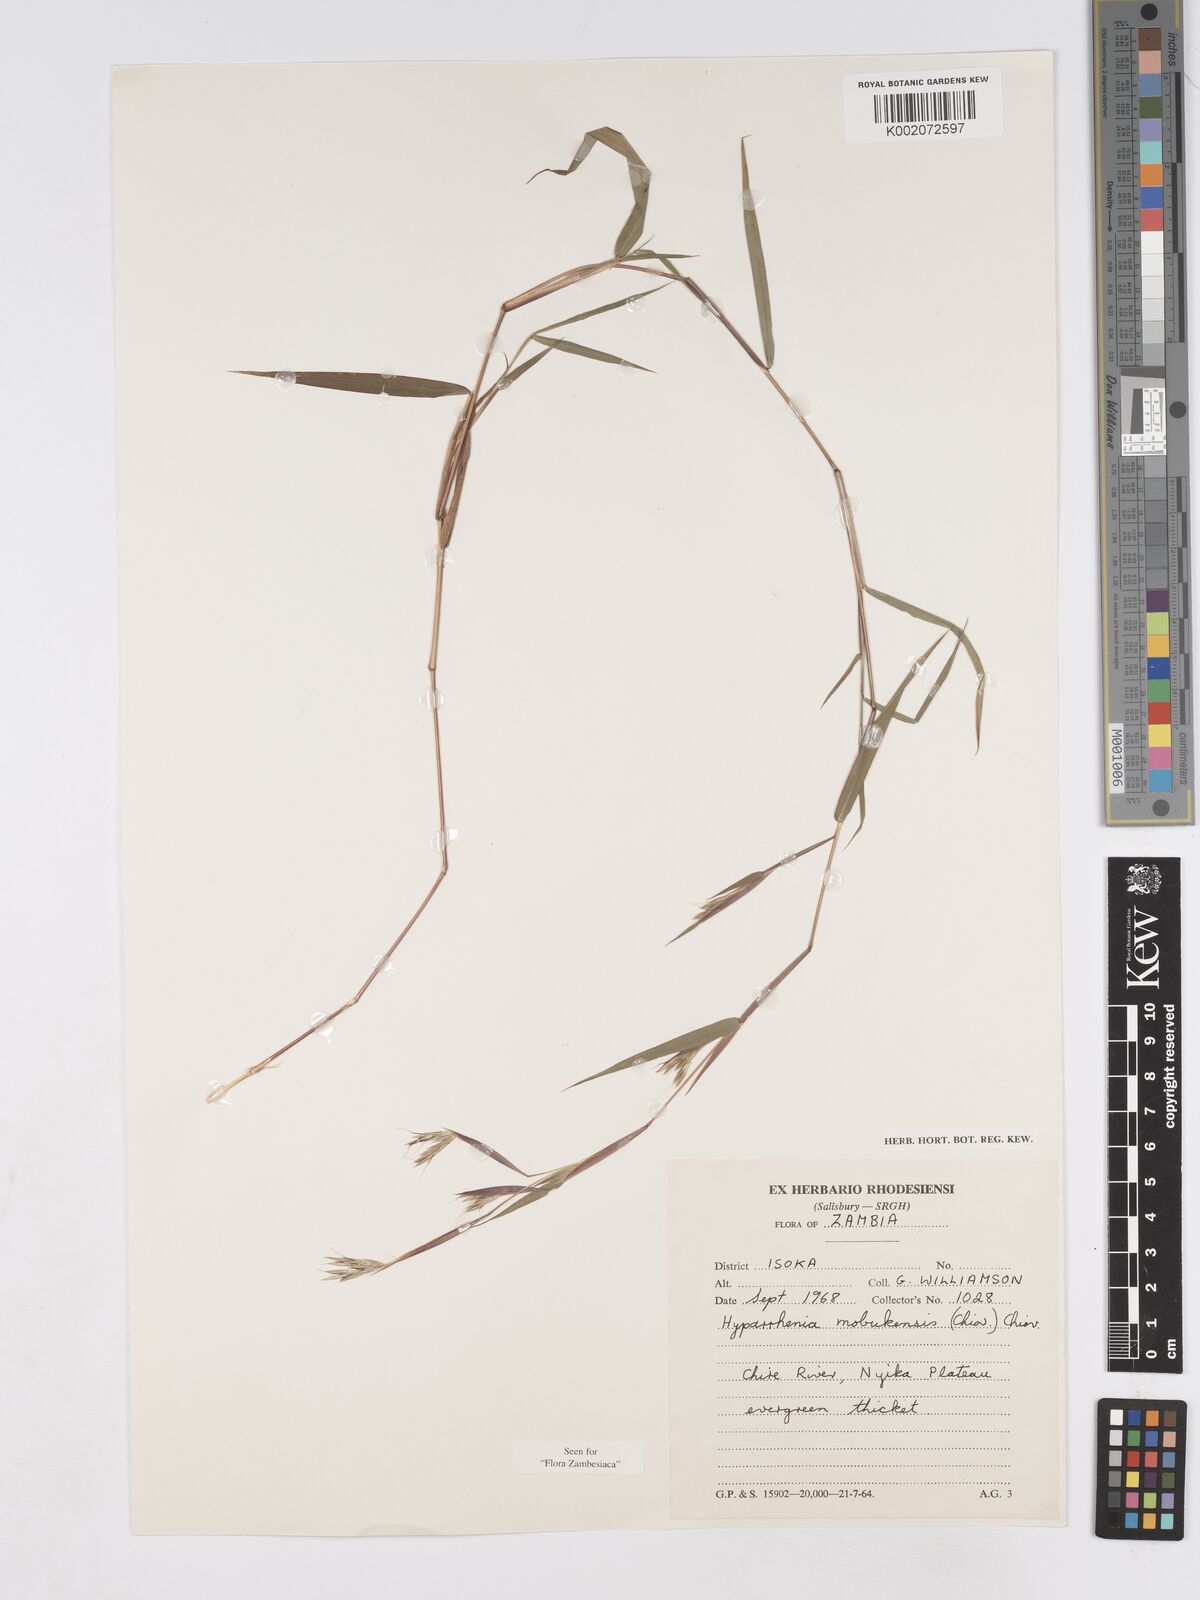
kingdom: Plantae
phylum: Tracheophyta
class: Liliopsida
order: Poales
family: Poaceae
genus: Hyparrhenia
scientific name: Hyparrhenia mobukensis
